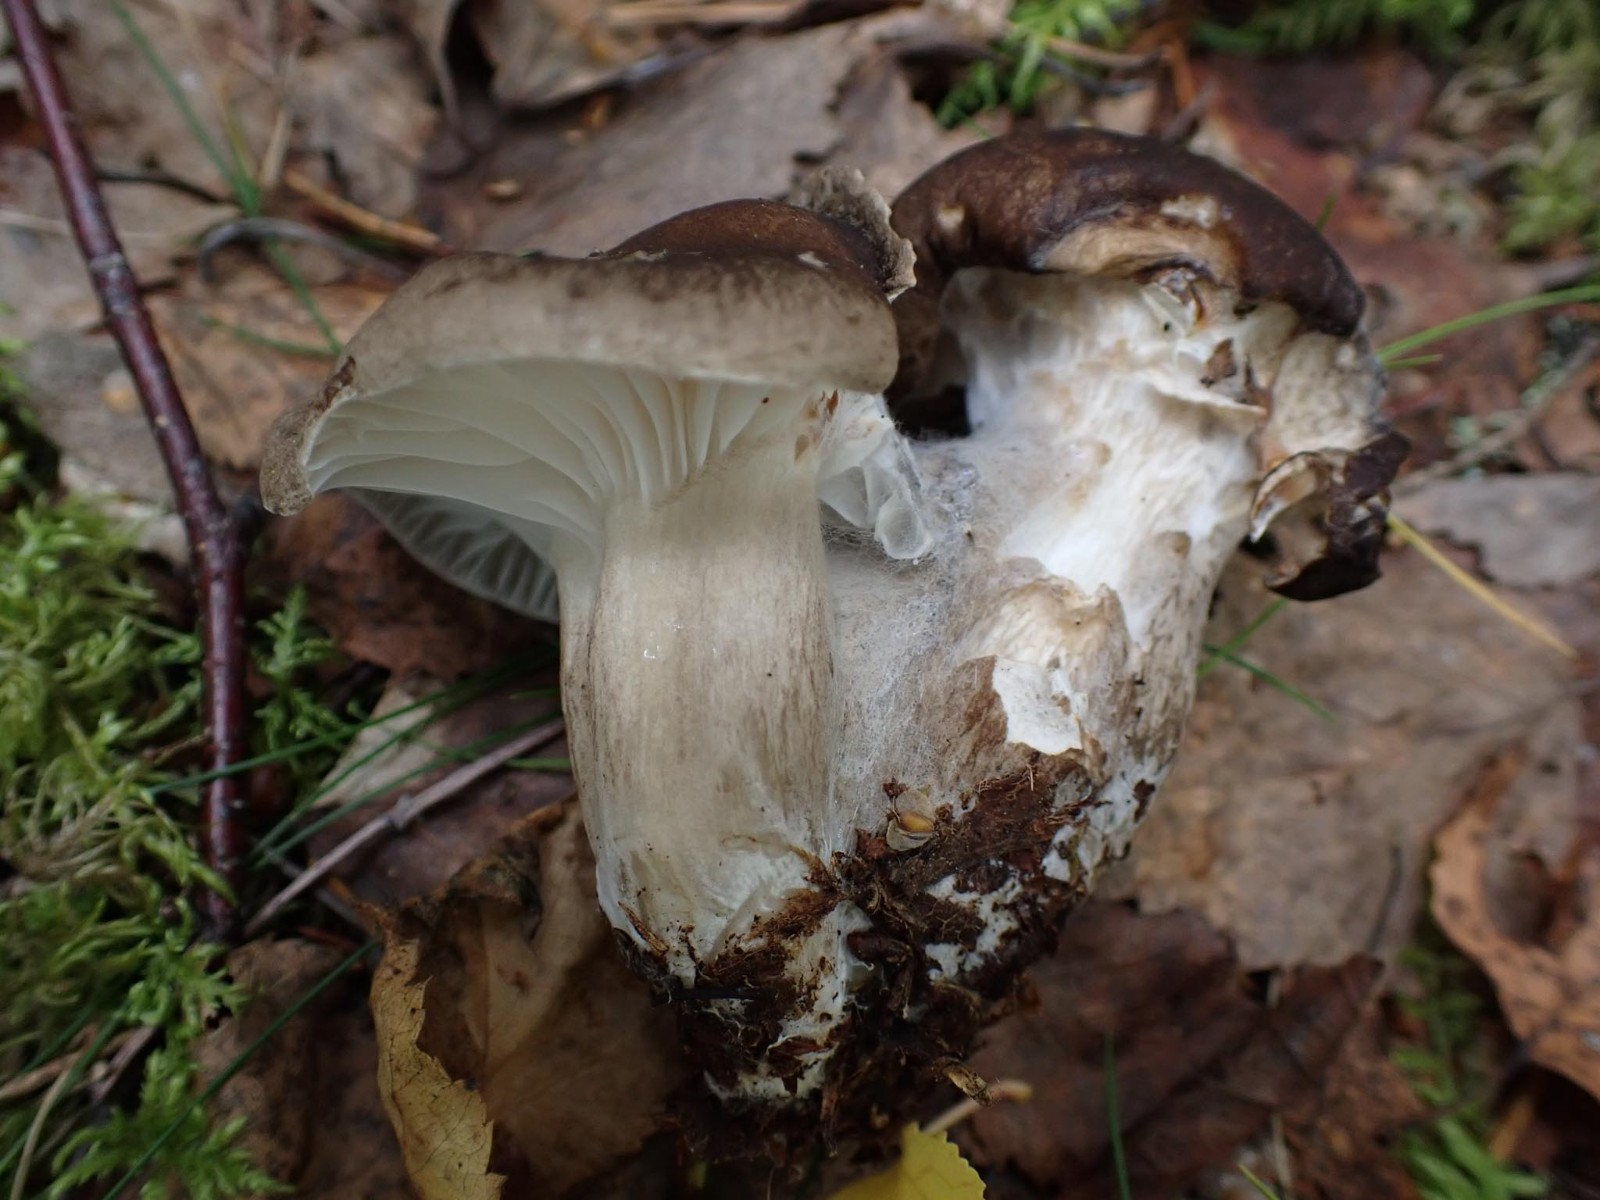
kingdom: Fungi
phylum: Basidiomycota
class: Agaricomycetes
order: Agaricales
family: Hygrophoraceae
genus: Hygrophorus
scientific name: Hygrophorus camarophyllus
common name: sodbrun sneglehat
